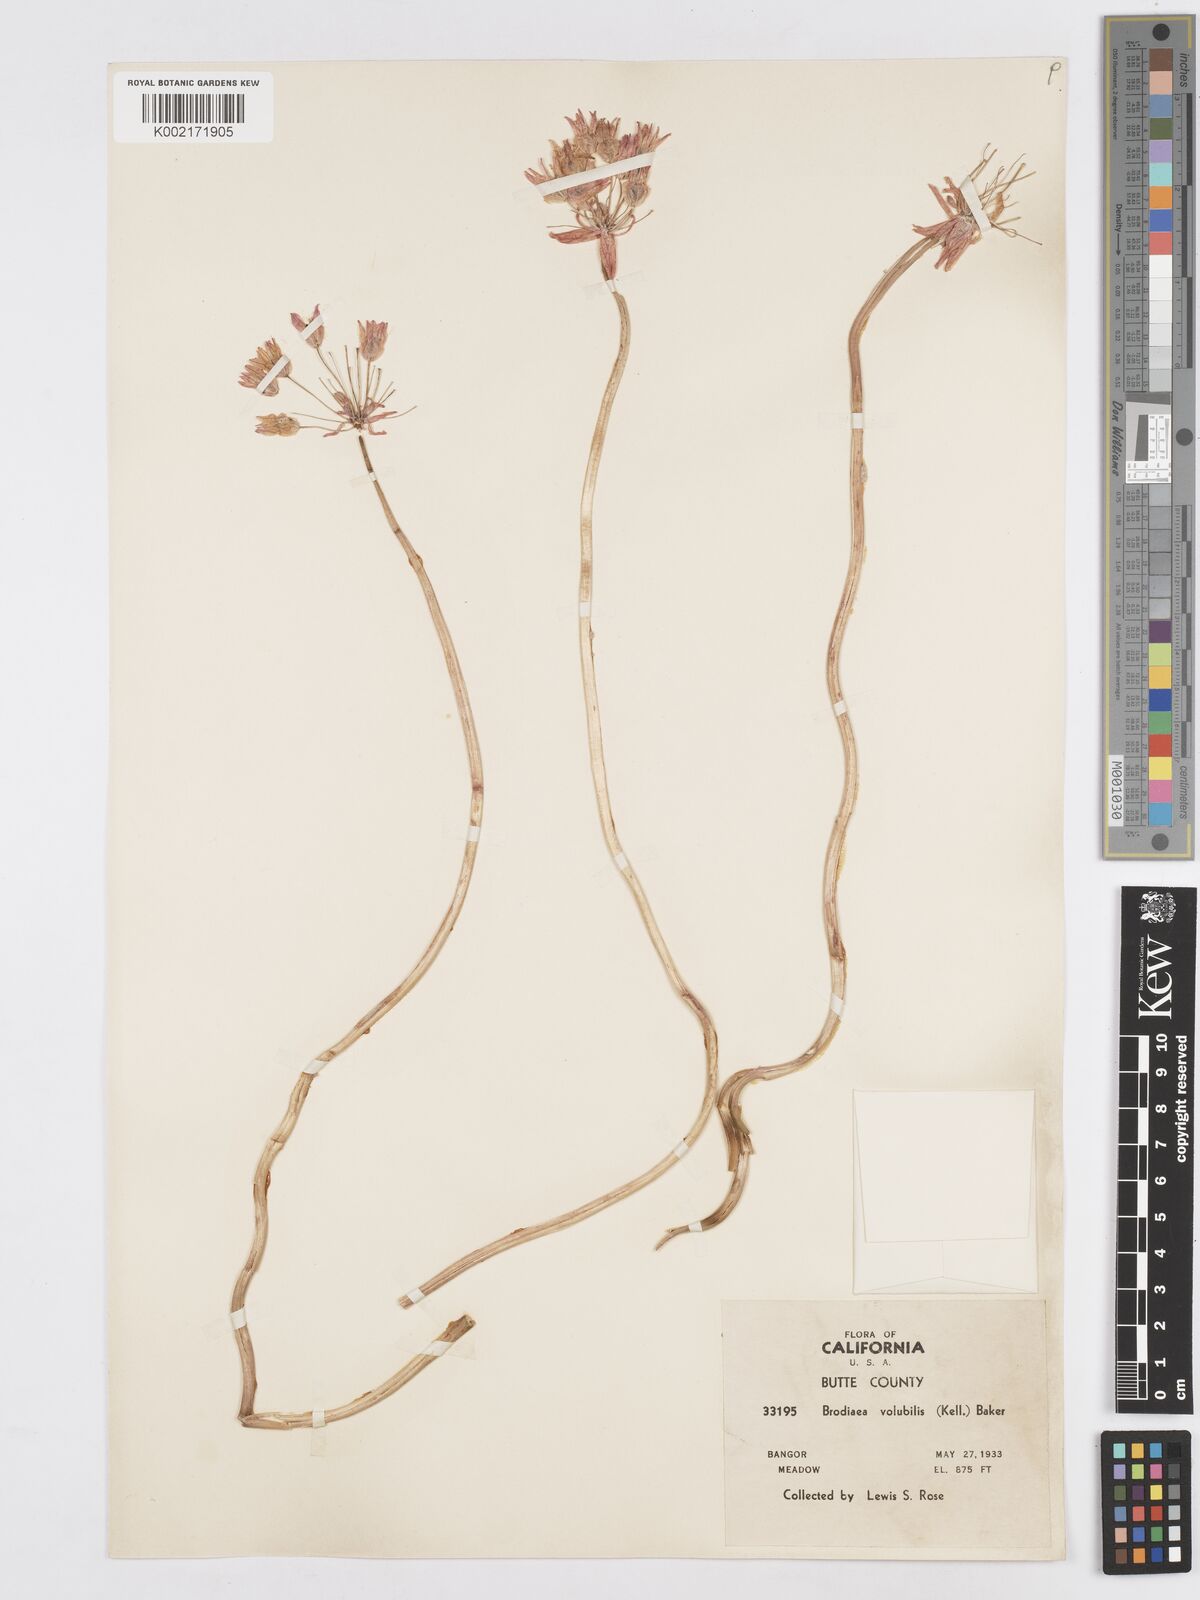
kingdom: Plantae
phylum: Tracheophyta
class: Liliopsida
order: Asparagales
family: Asparagaceae
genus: Dichelostemma
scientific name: Dichelostemma volubile
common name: Trining brodiaea
